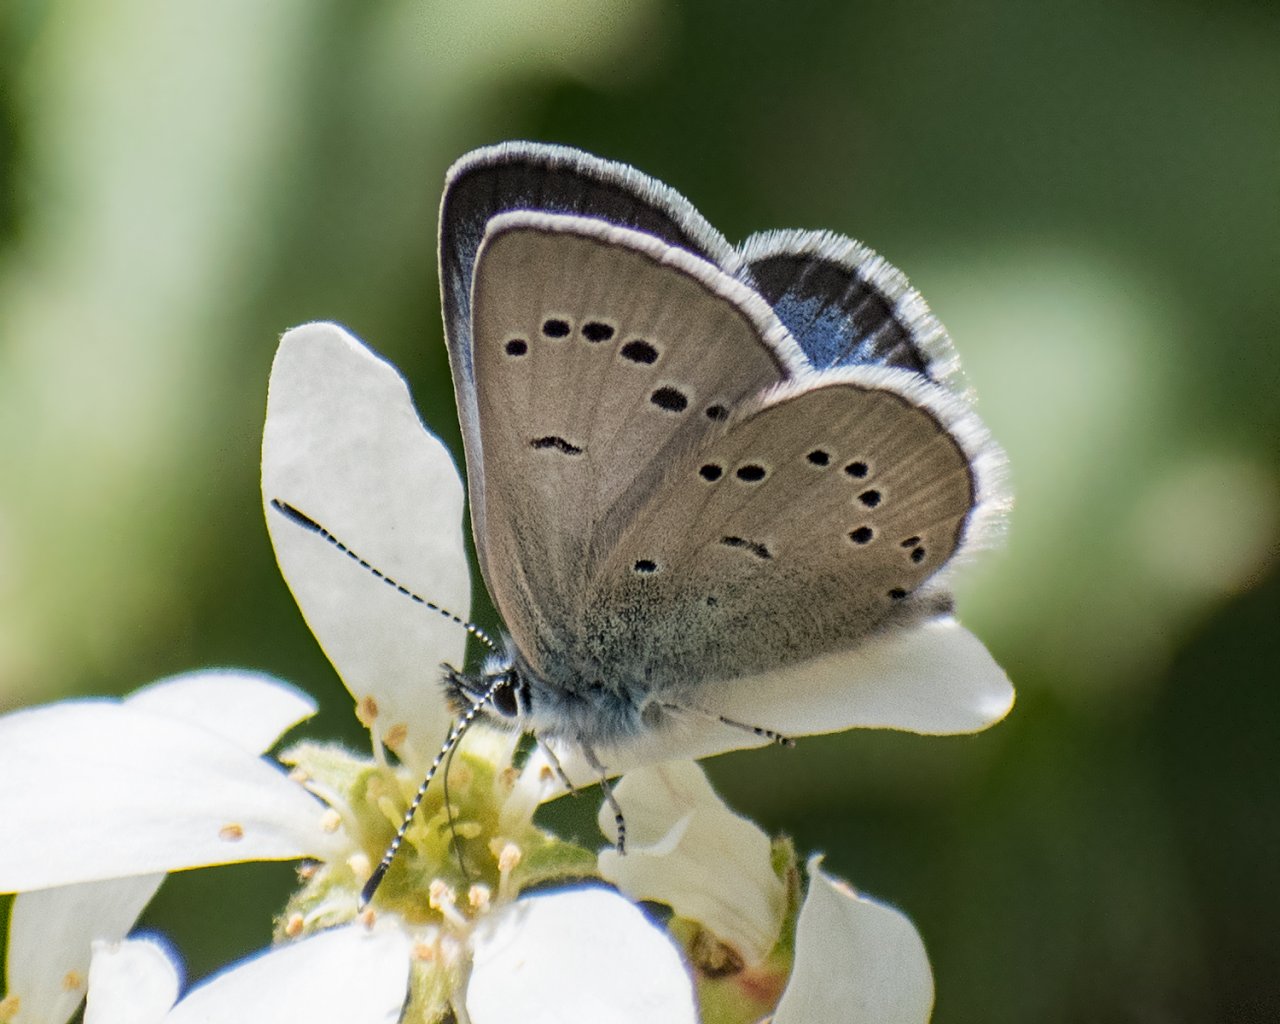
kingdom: Animalia
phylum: Arthropoda
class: Insecta
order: Lepidoptera
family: Lycaenidae
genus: Glaucopsyche
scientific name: Glaucopsyche lygdamus
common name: Silvery Blue
